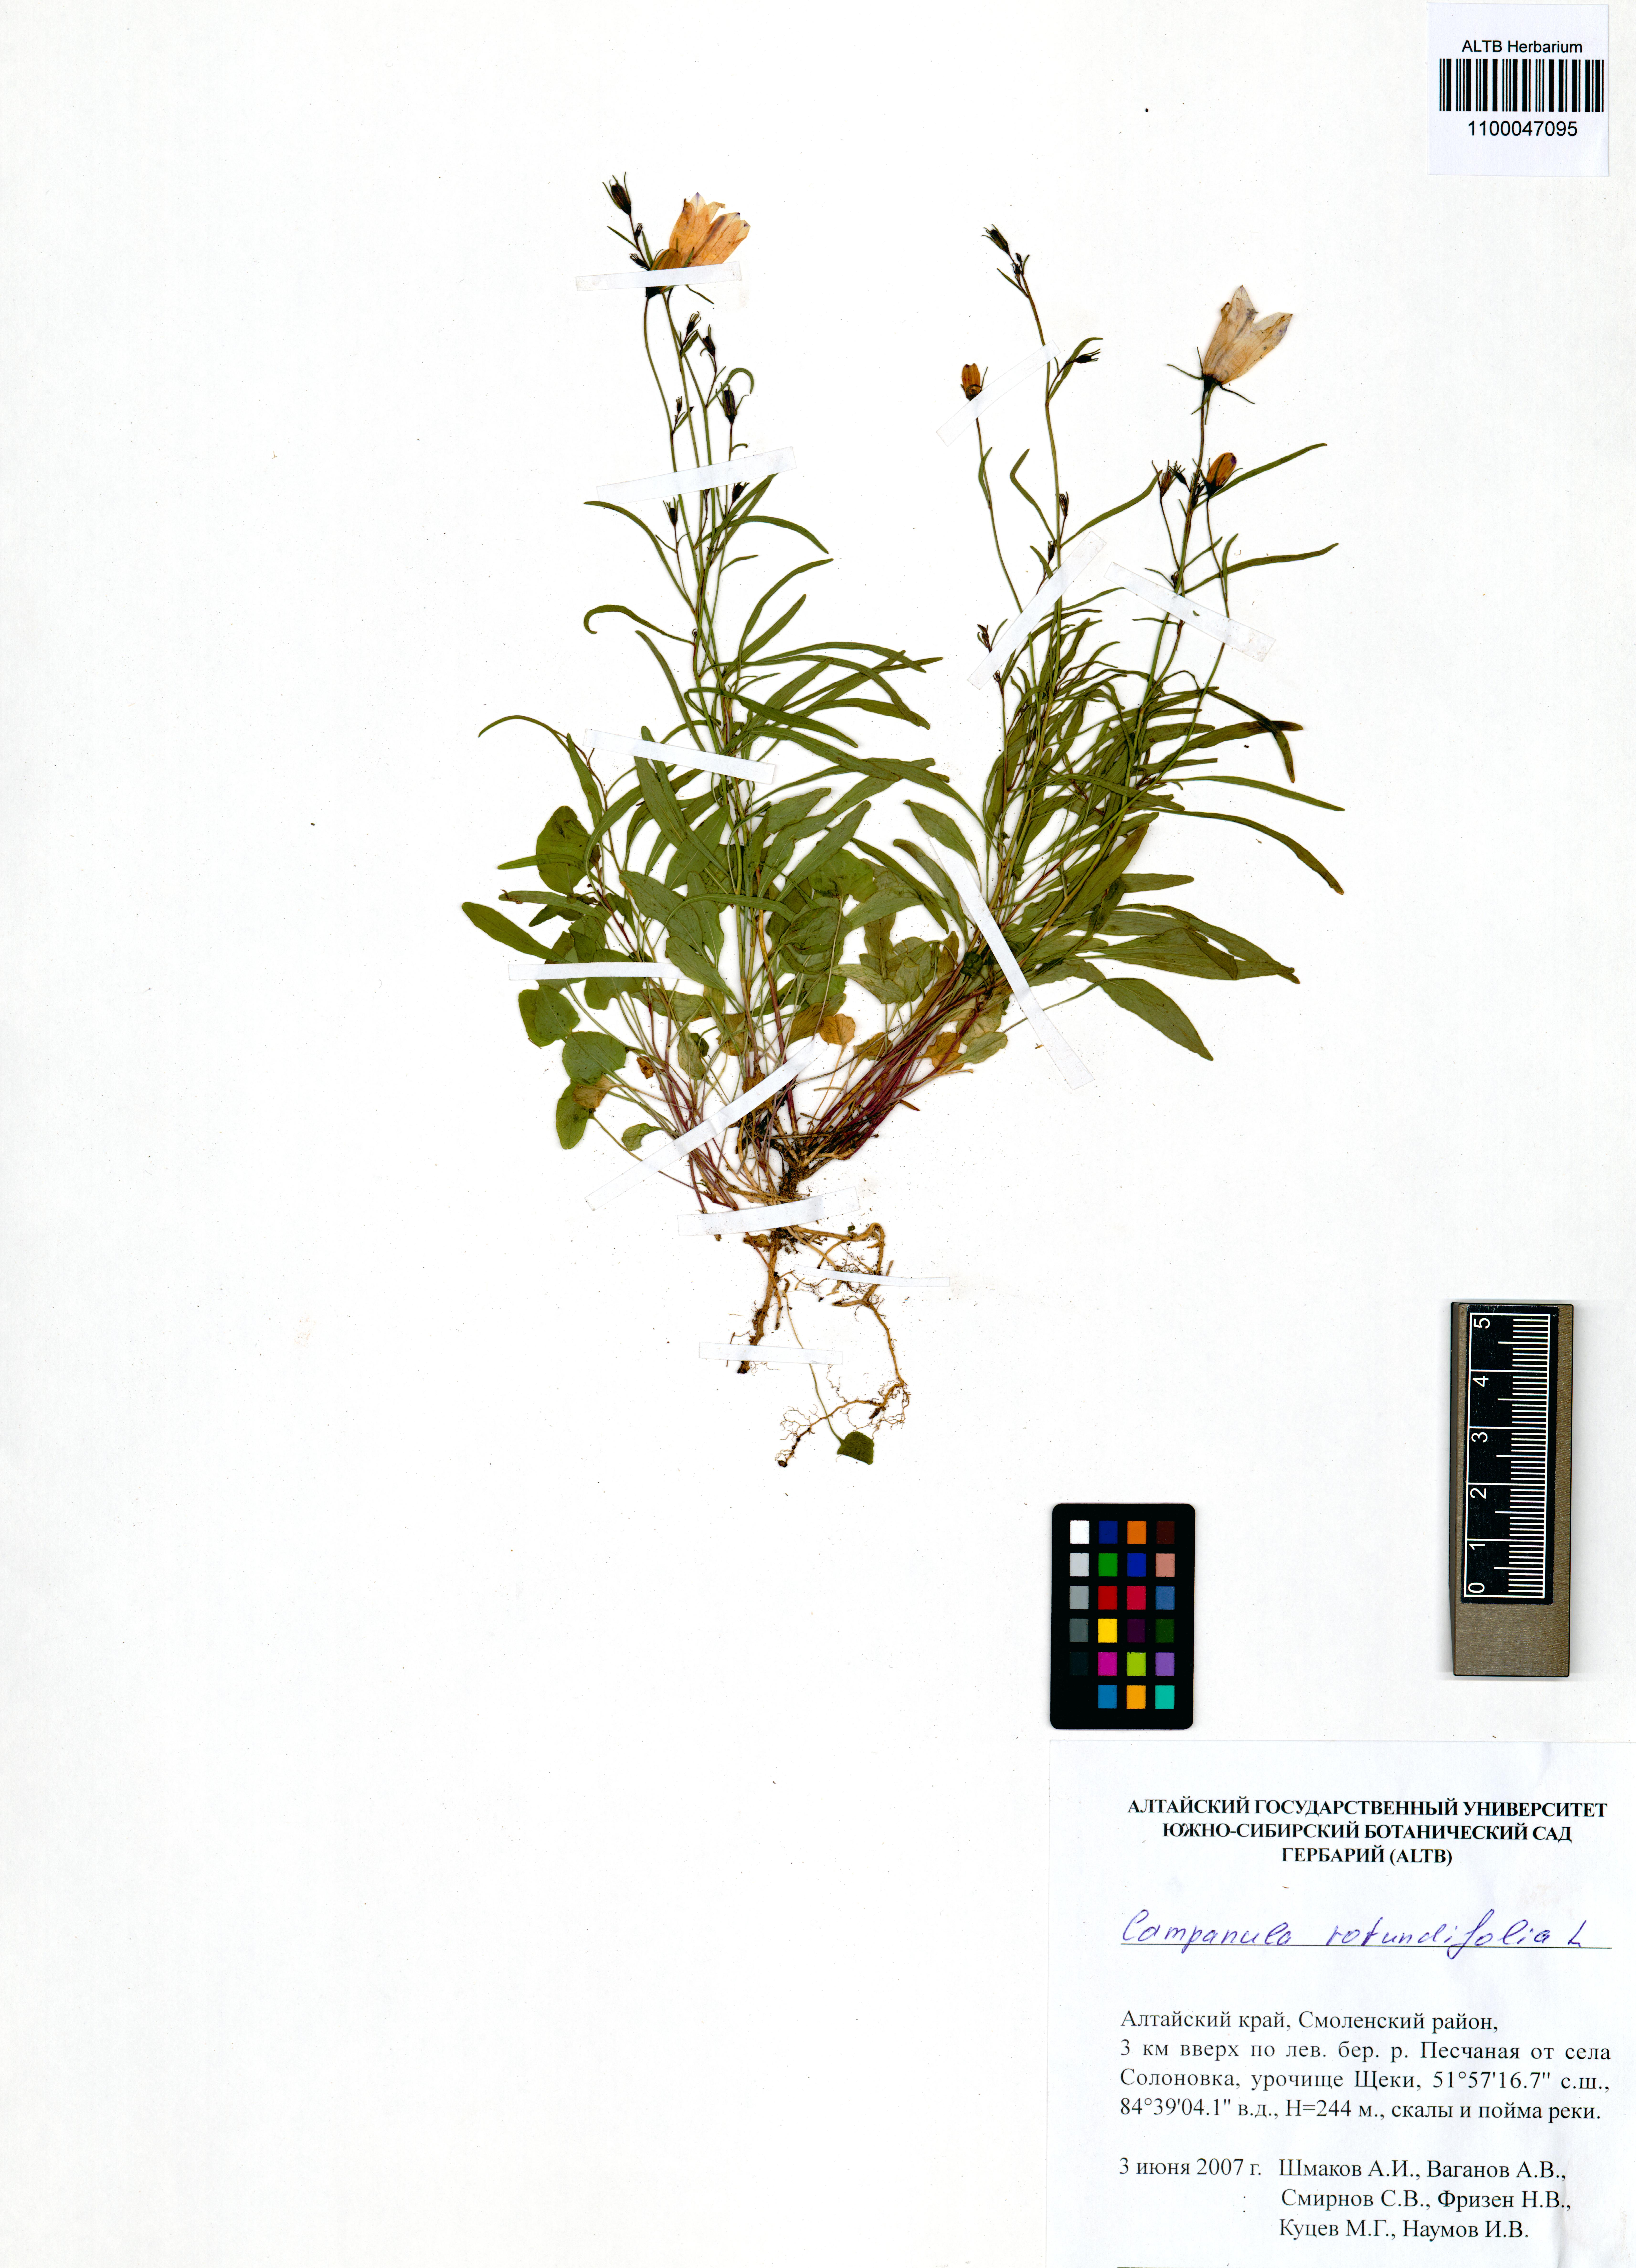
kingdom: Plantae
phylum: Tracheophyta
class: Magnoliopsida
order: Asterales
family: Campanulaceae
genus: Campanula
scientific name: Campanula rotundifolia
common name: Harebell
